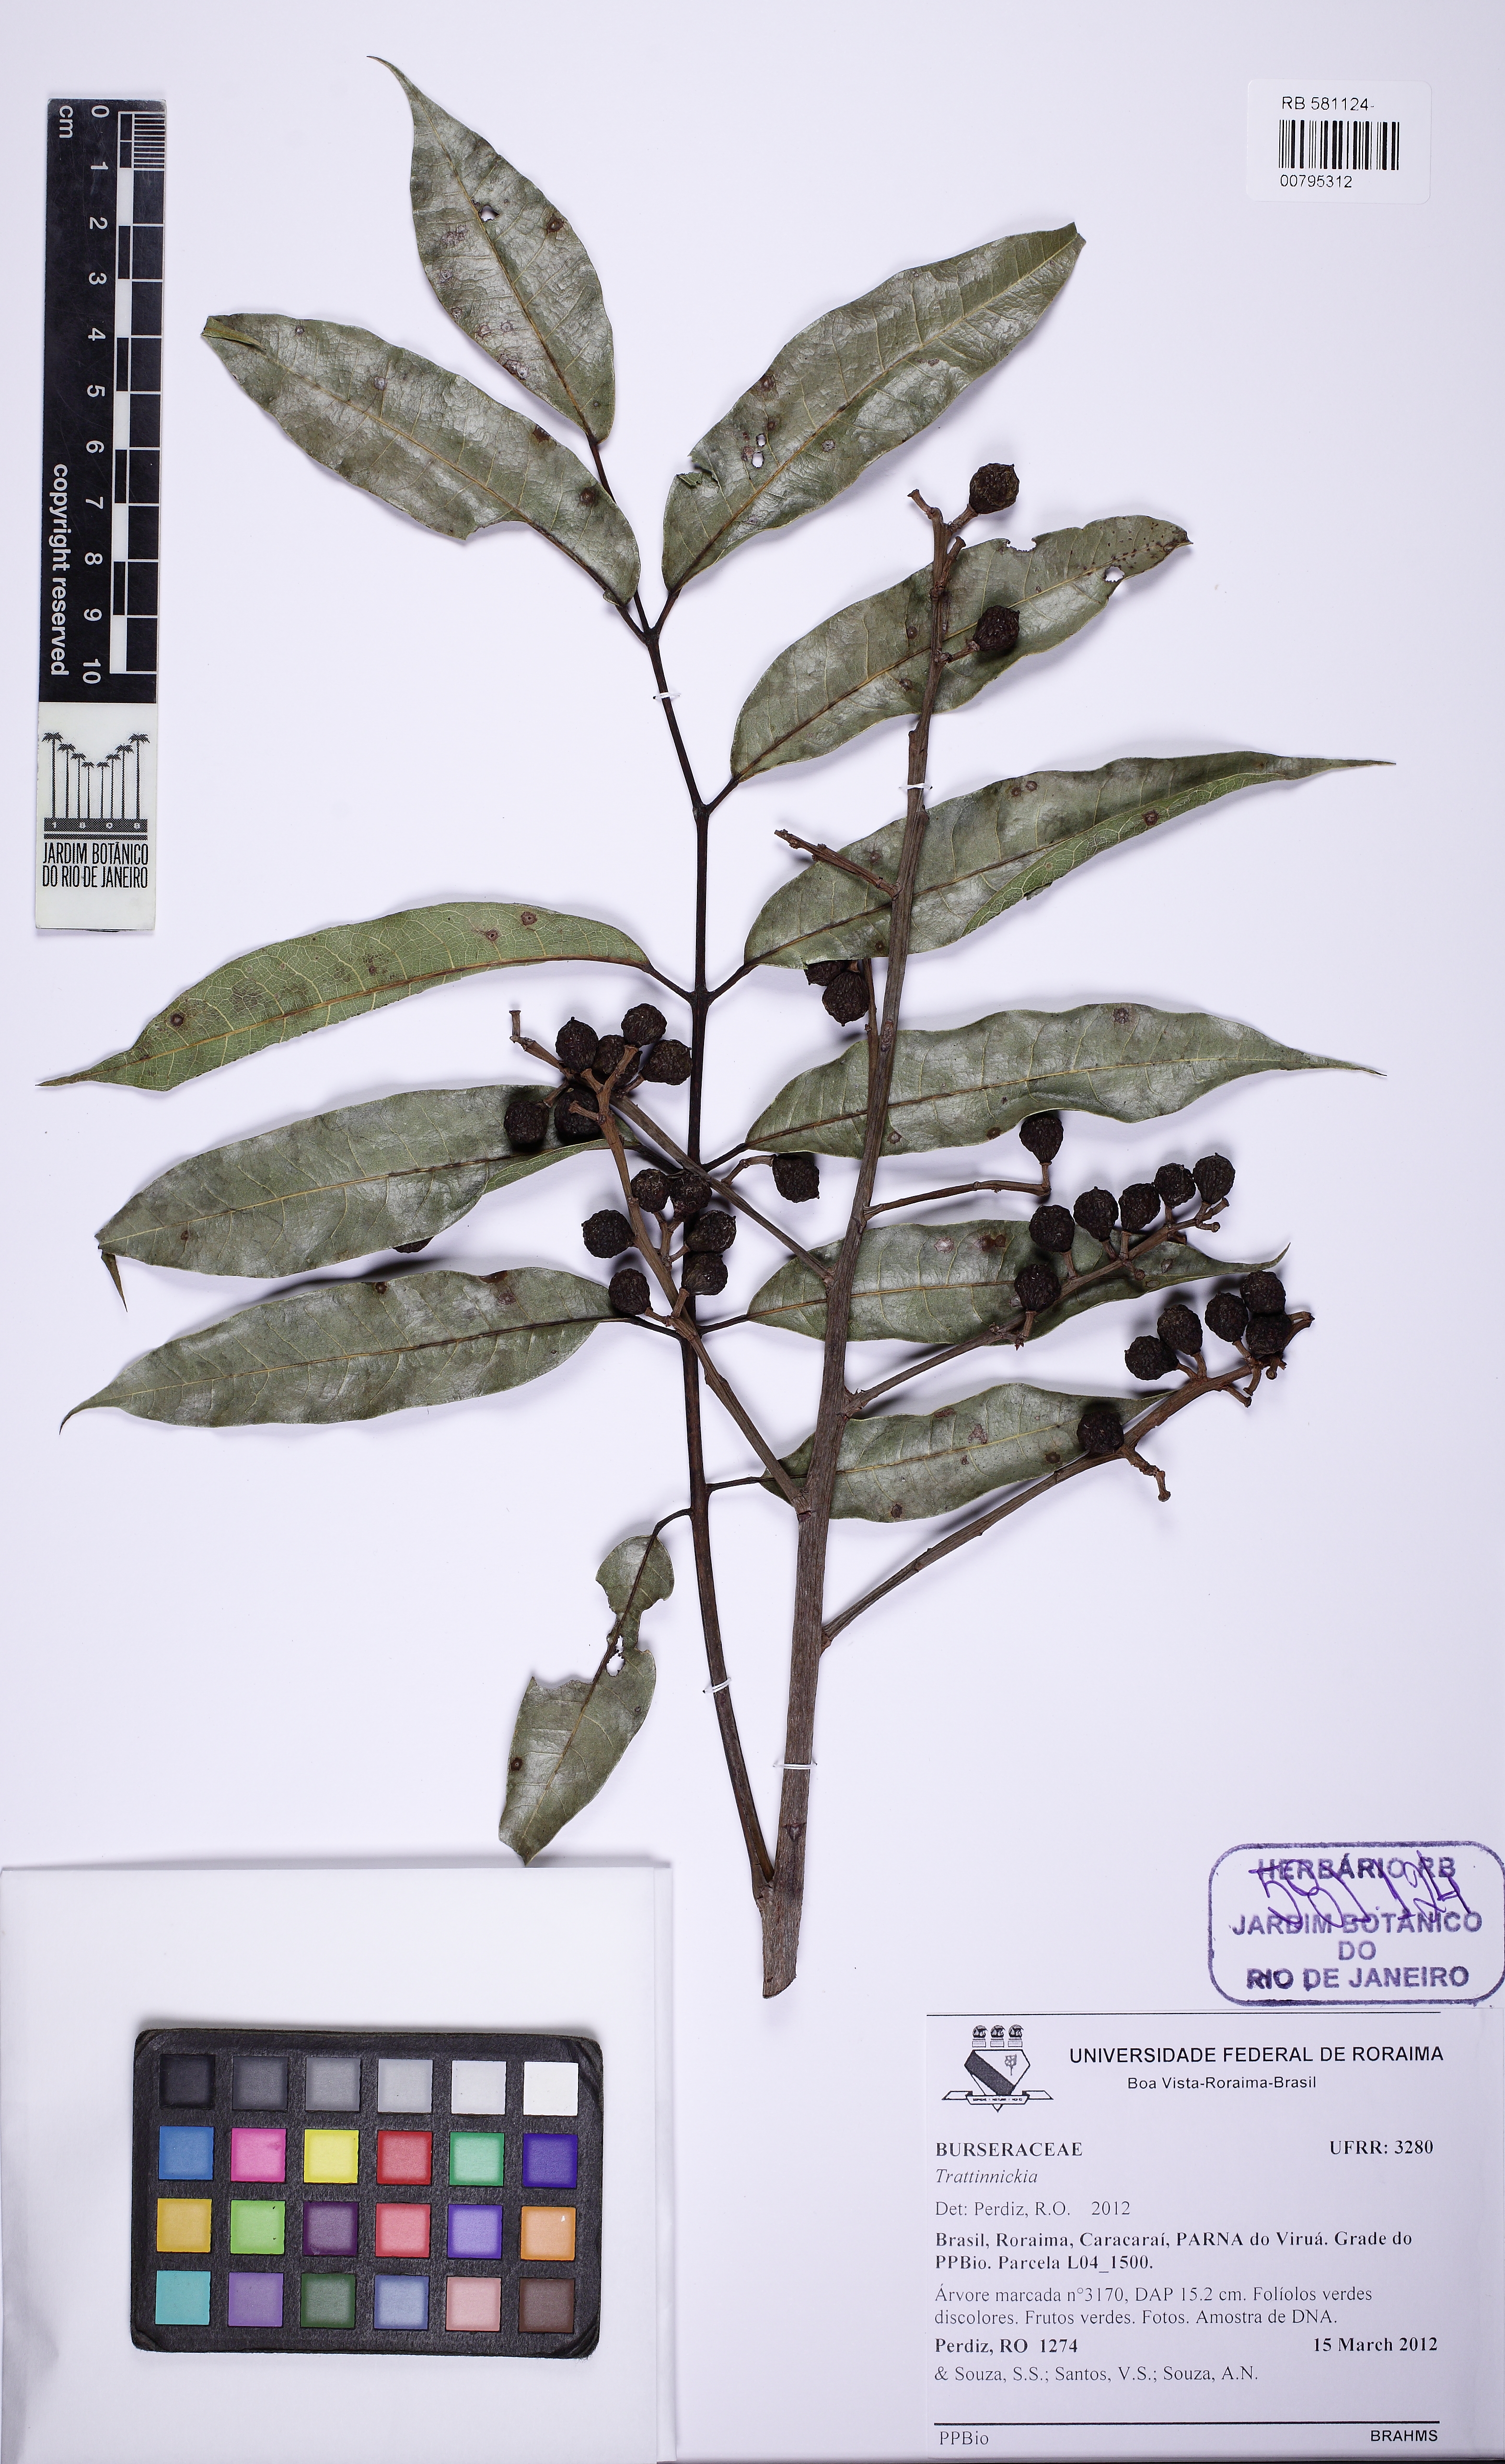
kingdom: Plantae
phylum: Tracheophyta
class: Magnoliopsida
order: Sapindales
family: Burseraceae
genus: Trattinnickia
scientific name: Trattinnickia lancifolia
